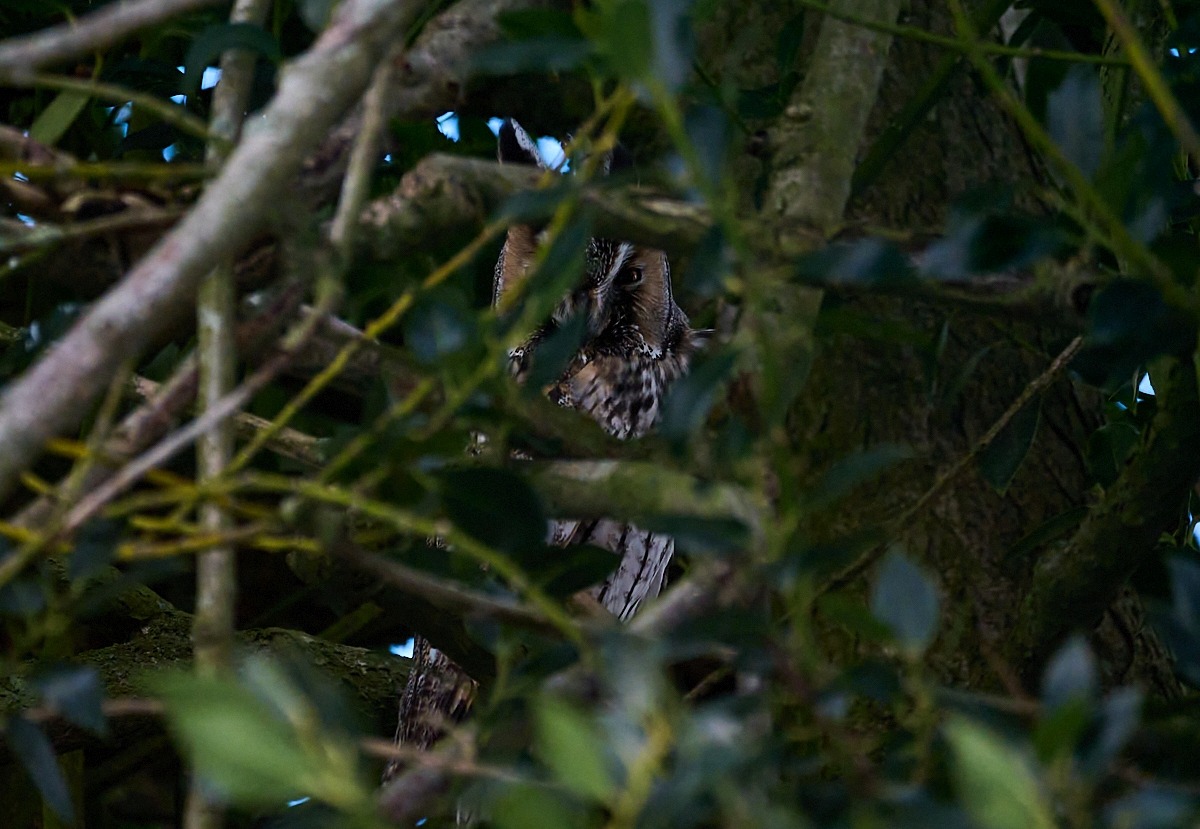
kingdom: Animalia
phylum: Chordata
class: Aves
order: Strigiformes
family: Strigidae
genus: Asio
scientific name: Asio otus
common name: Skovhornugle
